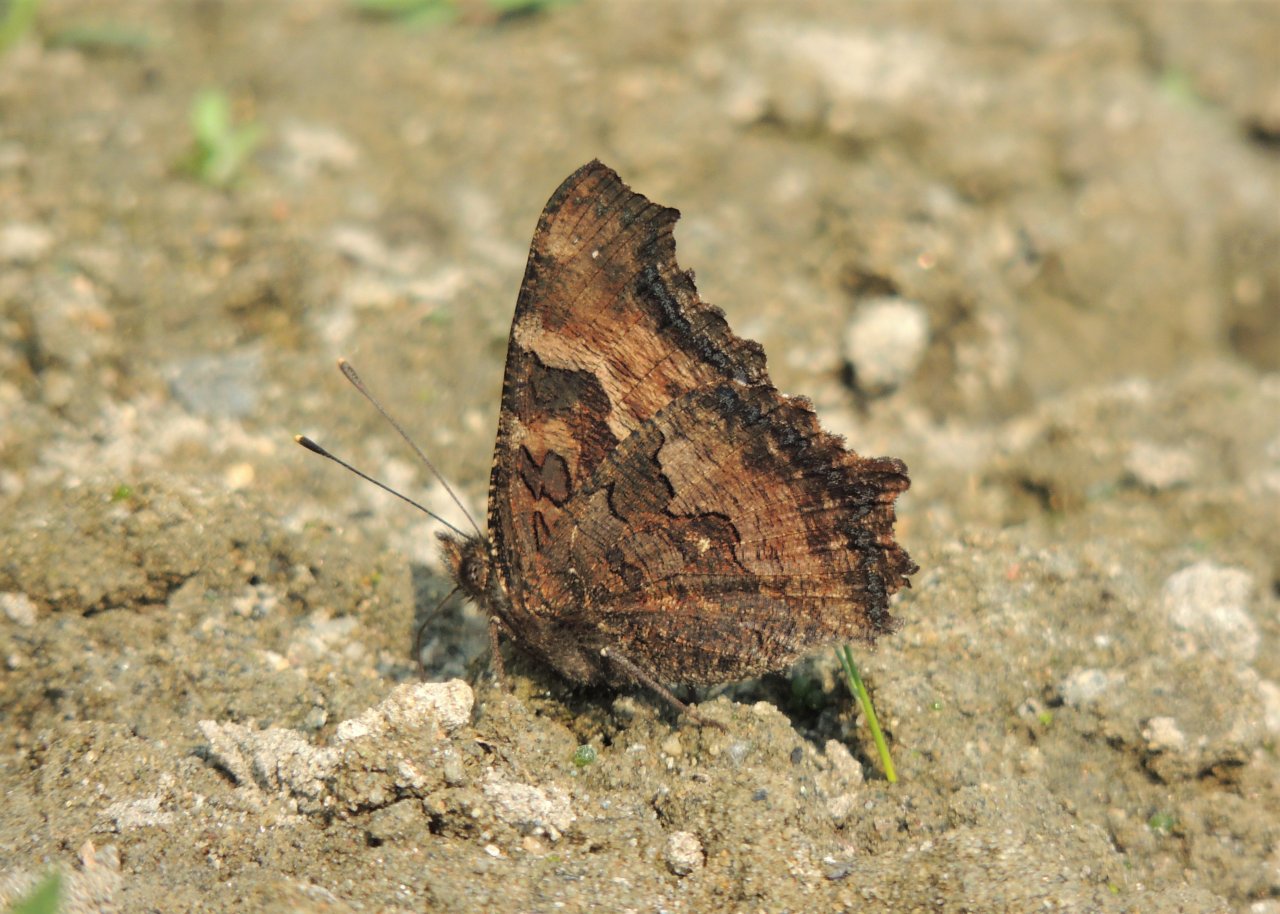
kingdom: Animalia
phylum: Arthropoda
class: Insecta
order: Lepidoptera
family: Nymphalidae
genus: Nymphalis
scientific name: Nymphalis californica
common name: California Tortoiseshell
